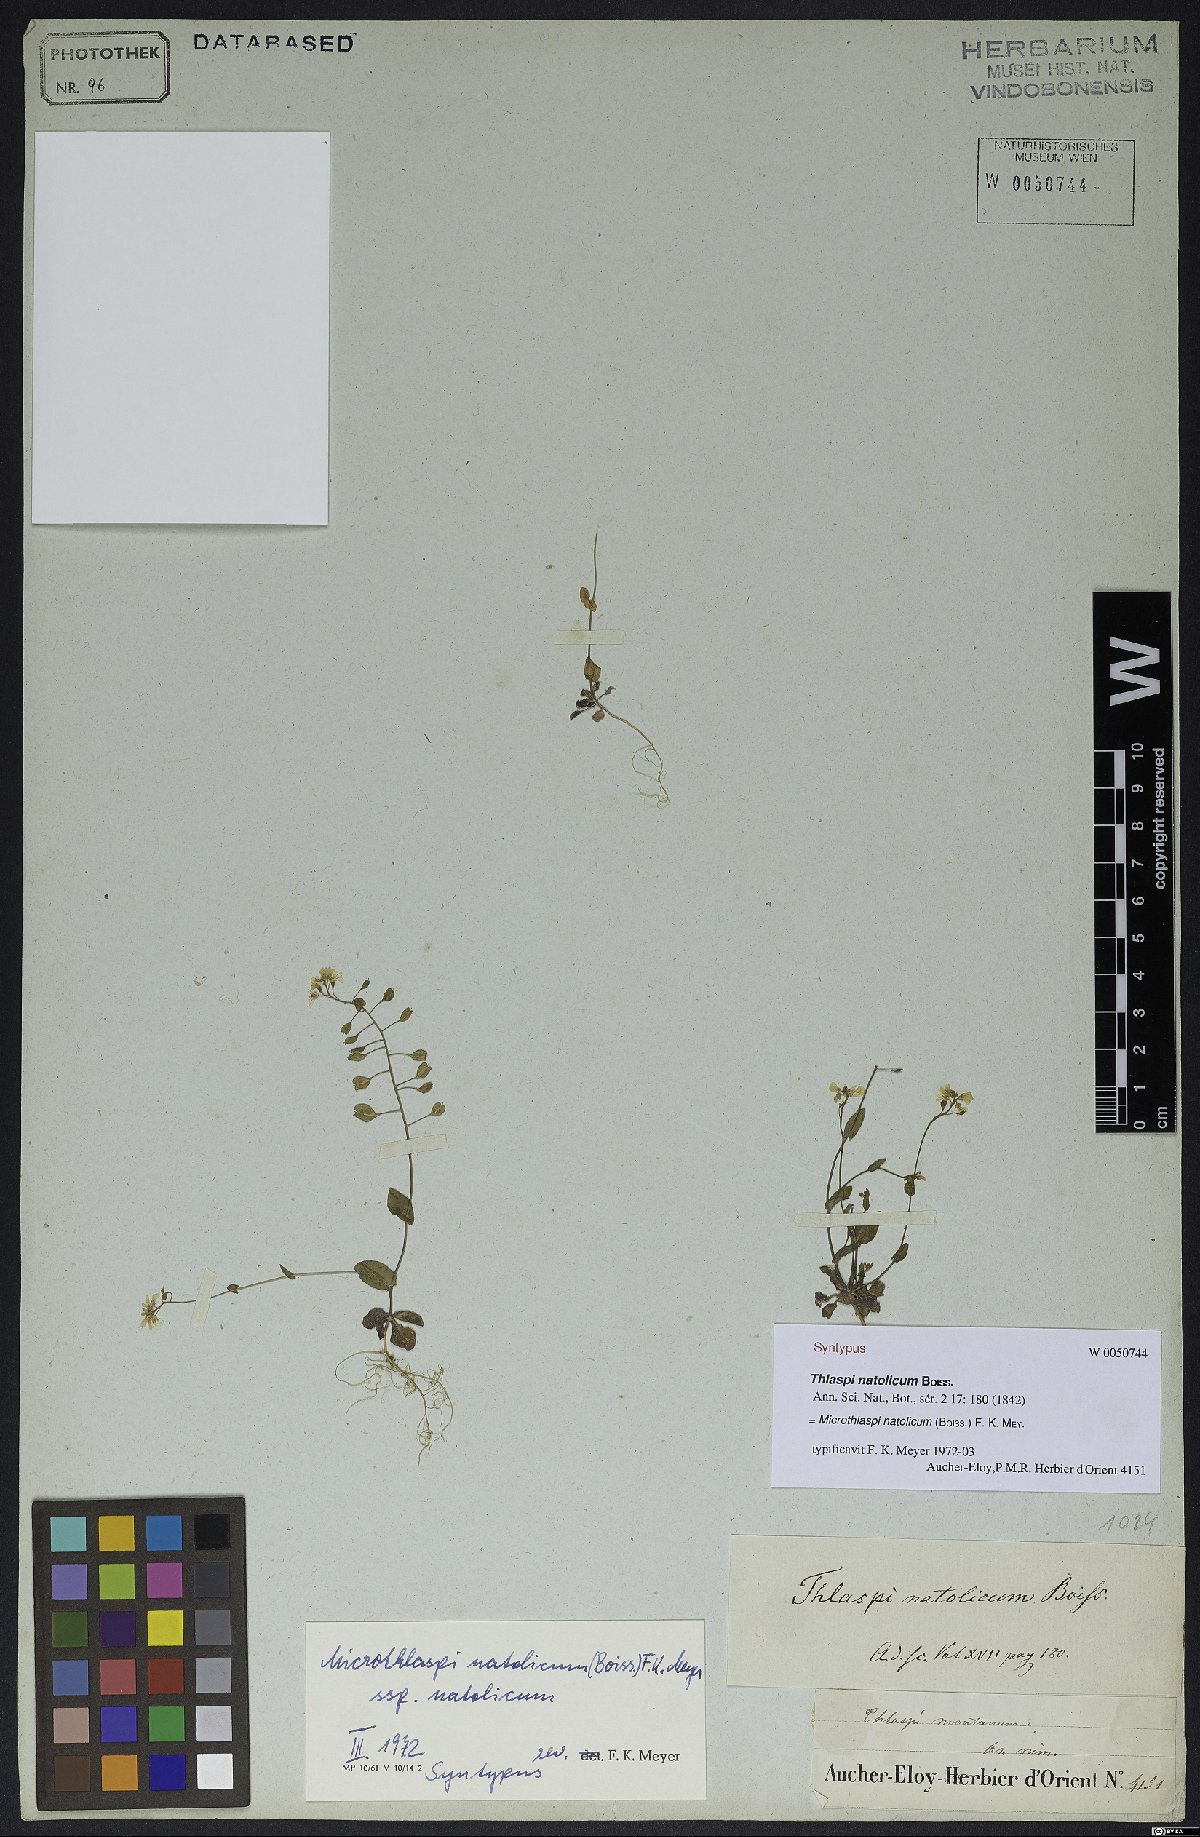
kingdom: Plantae
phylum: Tracheophyta
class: Magnoliopsida
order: Brassicales
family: Brassicaceae
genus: Noccaea
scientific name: Noccaea natolica
